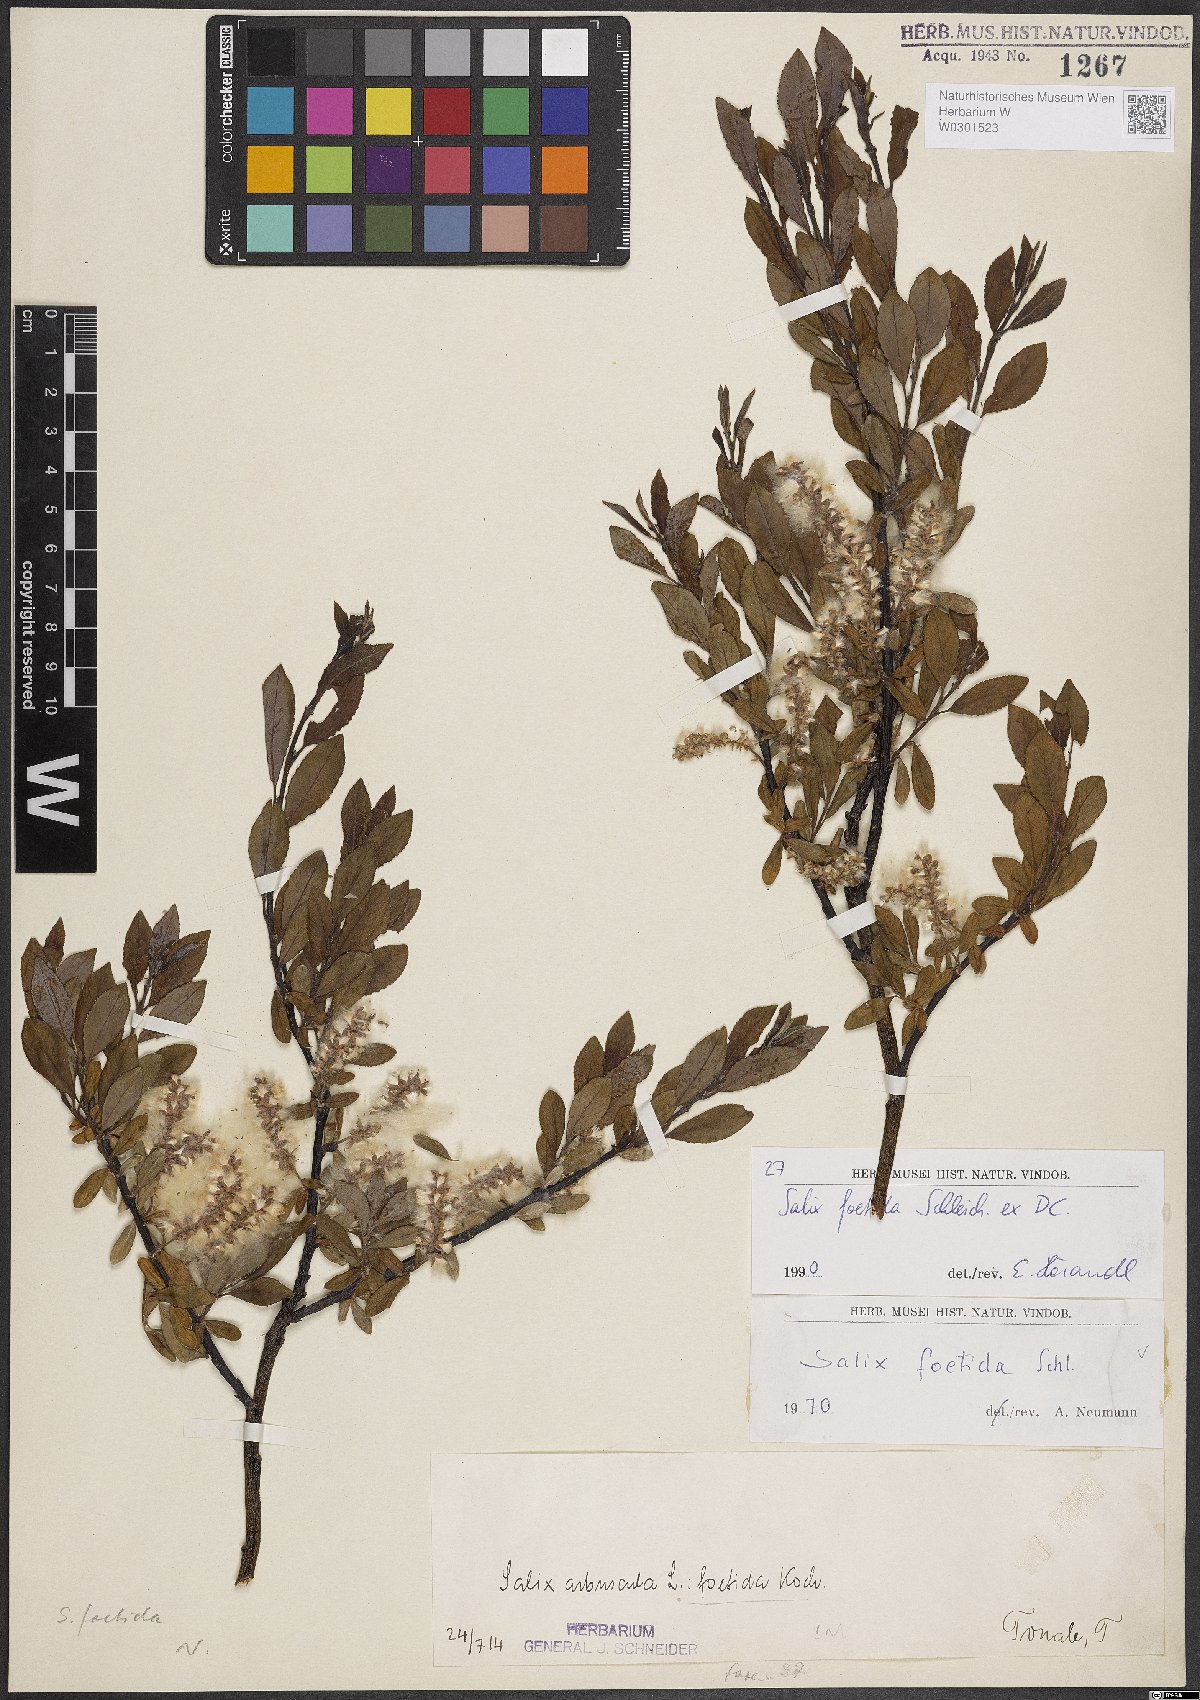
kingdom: Plantae
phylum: Tracheophyta
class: Magnoliopsida
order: Malpighiales
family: Salicaceae
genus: Salix
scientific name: Salix foetida
